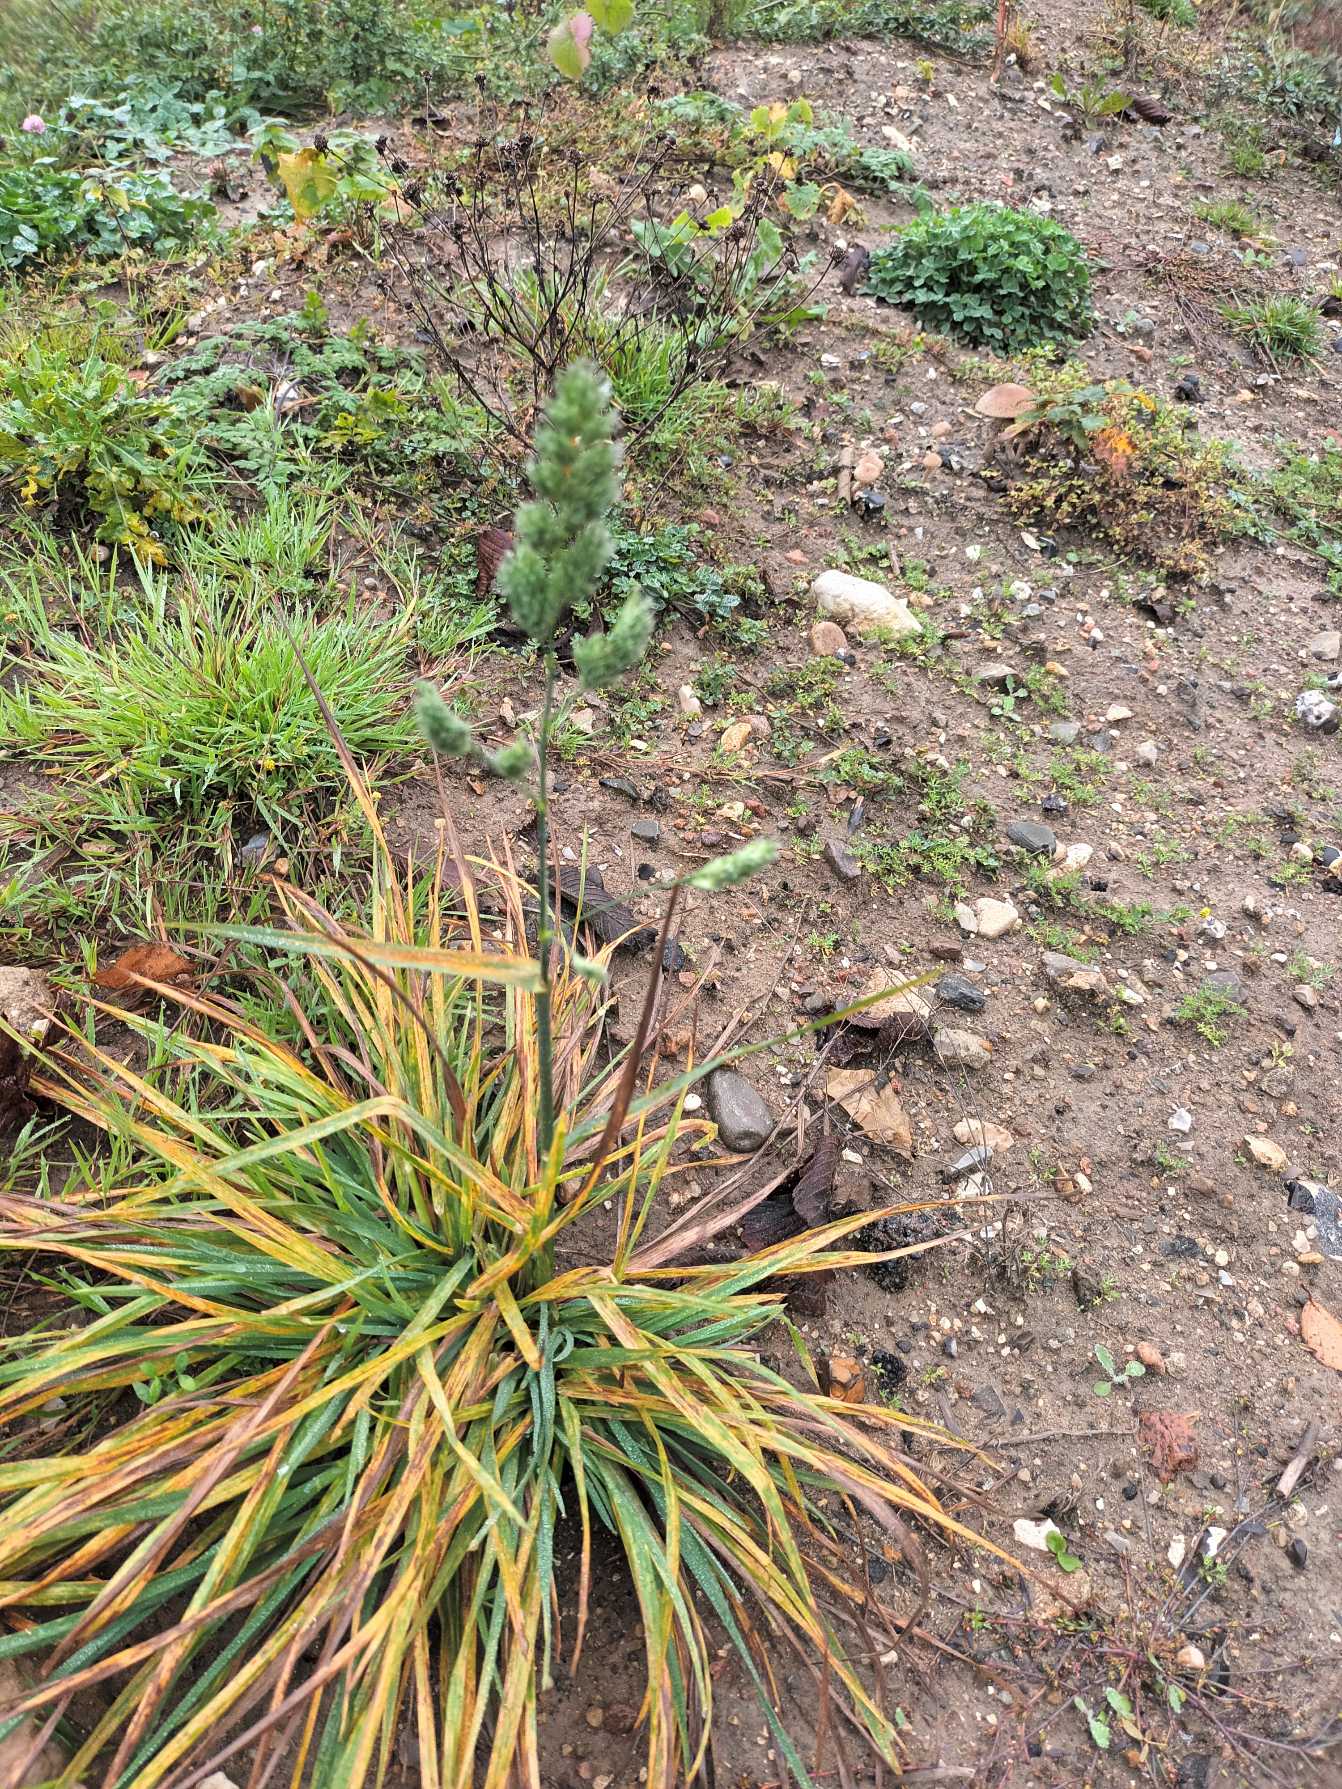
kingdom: Plantae
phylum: Tracheophyta
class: Liliopsida
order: Poales
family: Poaceae
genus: Dactylis
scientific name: Dactylis glomerata
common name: Almindelig hundegræs
